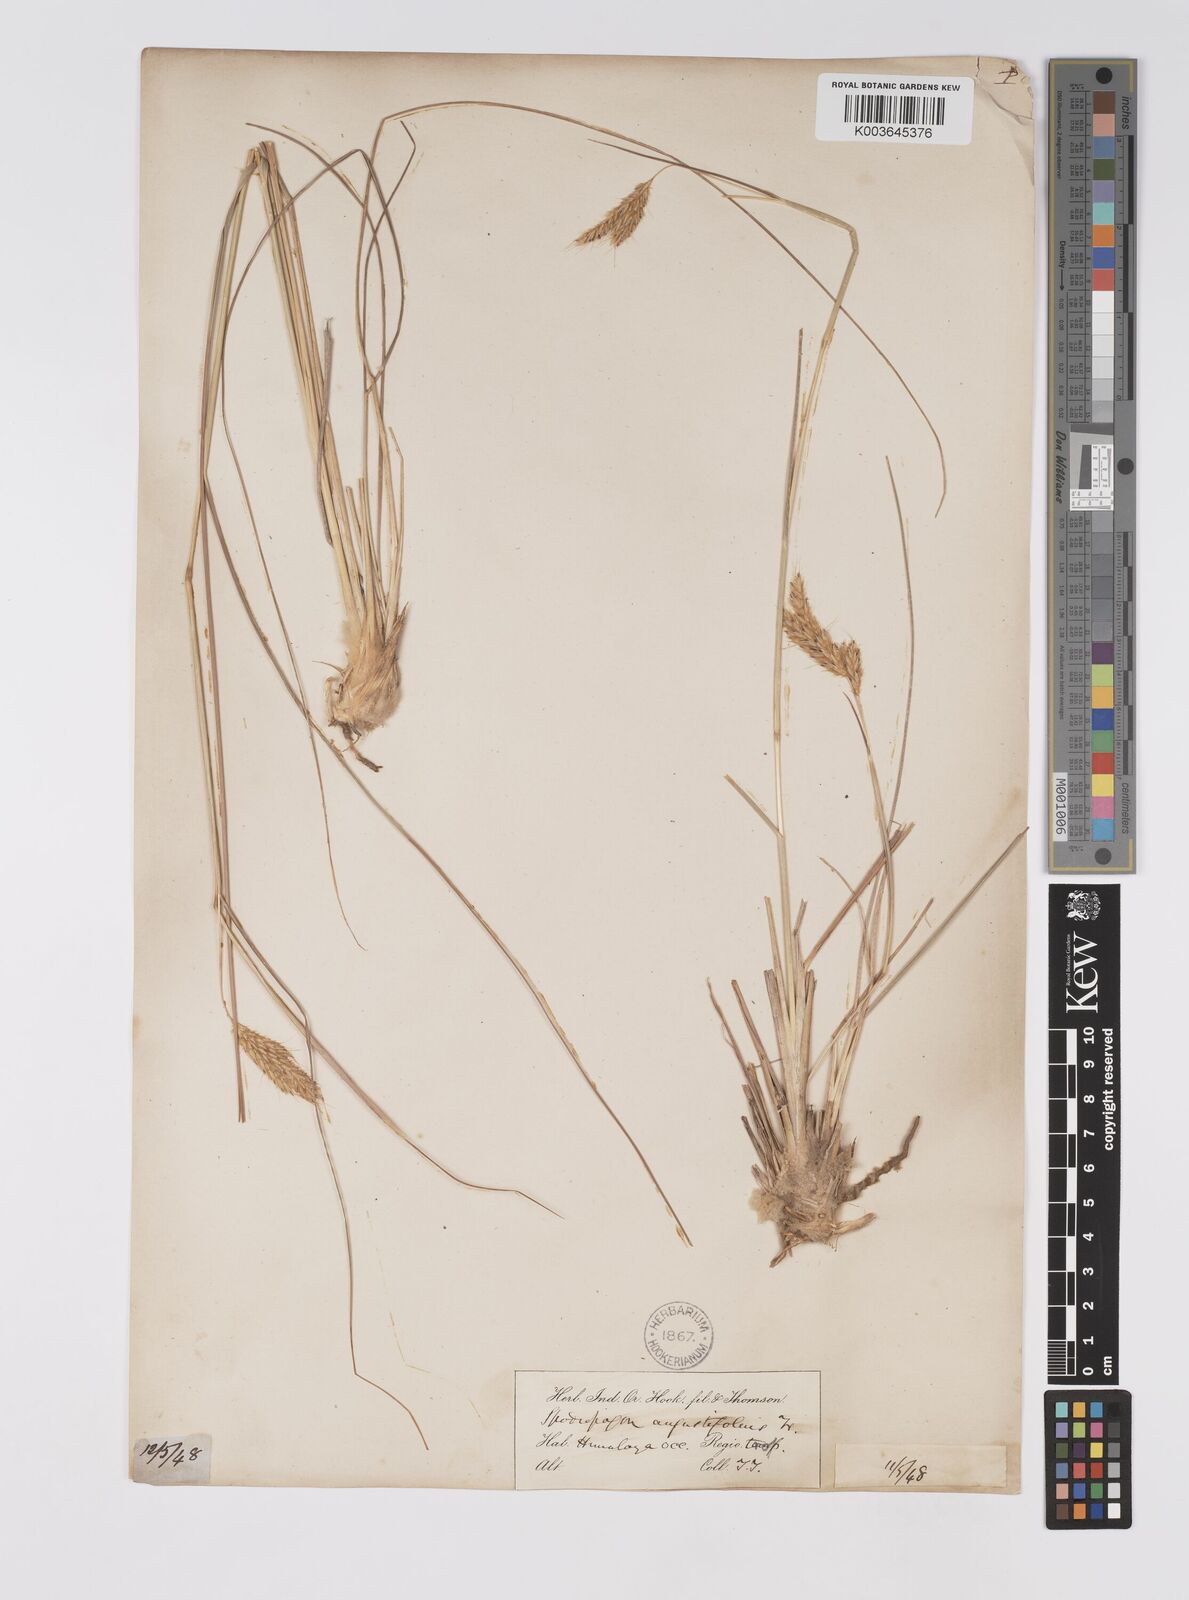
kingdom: Plantae
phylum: Tracheophyta
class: Liliopsida
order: Poales
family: Poaceae
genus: Eulaliopsis
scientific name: Eulaliopsis binata
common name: Baib grass
